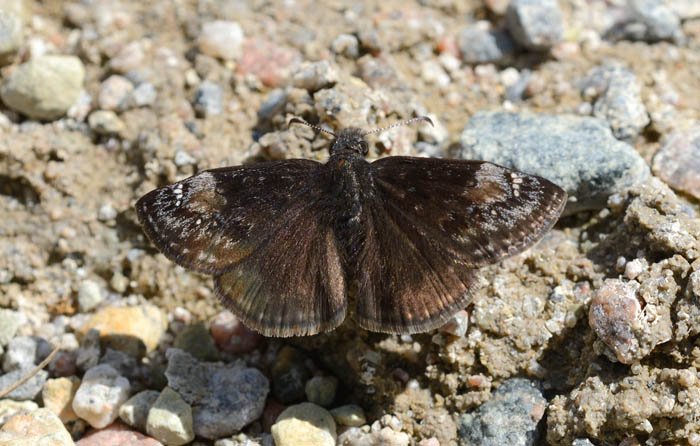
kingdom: Animalia
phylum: Arthropoda
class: Insecta
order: Lepidoptera
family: Hesperiidae
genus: Gesta
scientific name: Gesta
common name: Columbine Duskywing
